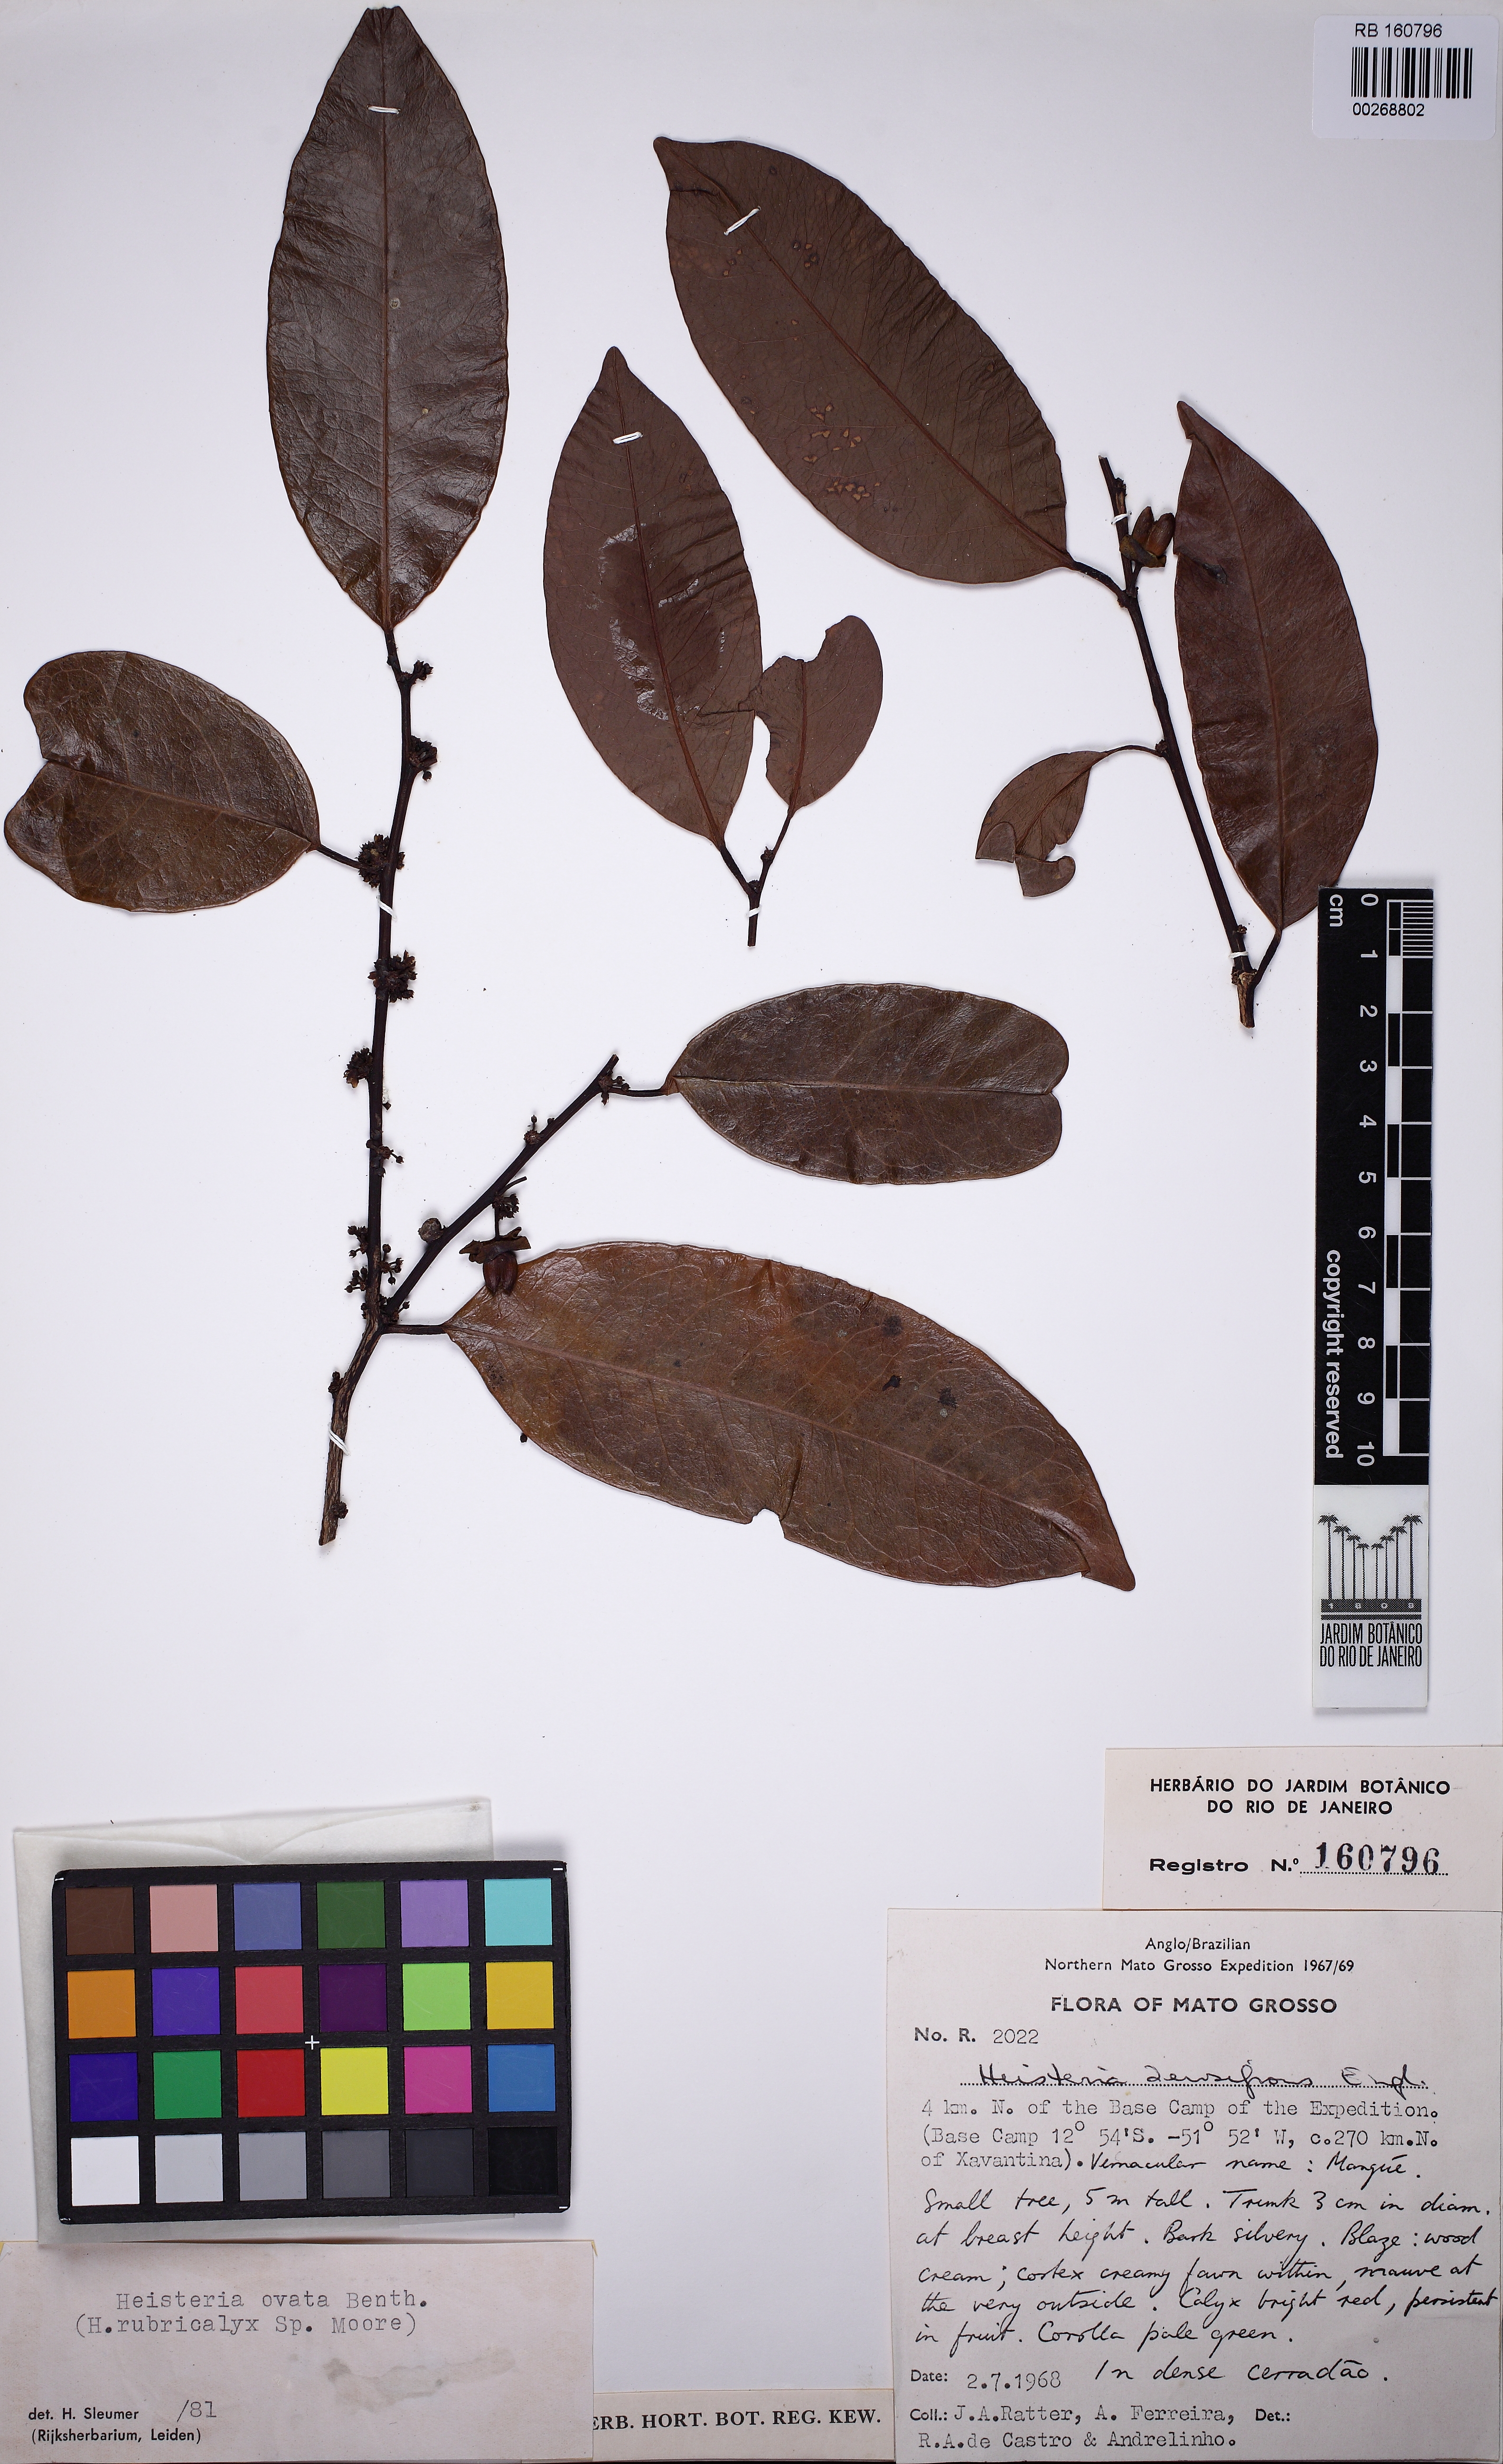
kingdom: Plantae
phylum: Tracheophyta
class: Magnoliopsida
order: Santalales
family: Erythropalaceae
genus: Heisteria
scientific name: Heisteria ovata
